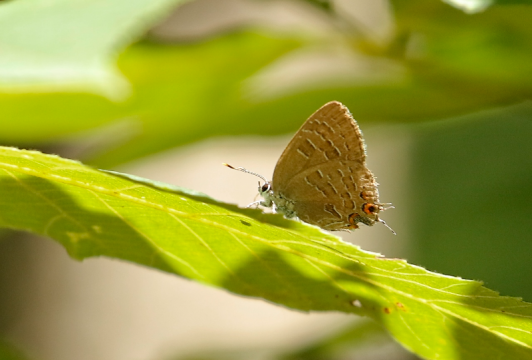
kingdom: Animalia
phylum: Arthropoda
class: Insecta
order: Lepidoptera
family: Lycaenidae
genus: Satyrium
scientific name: Satyrium liparops
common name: Striped Hairstreak
